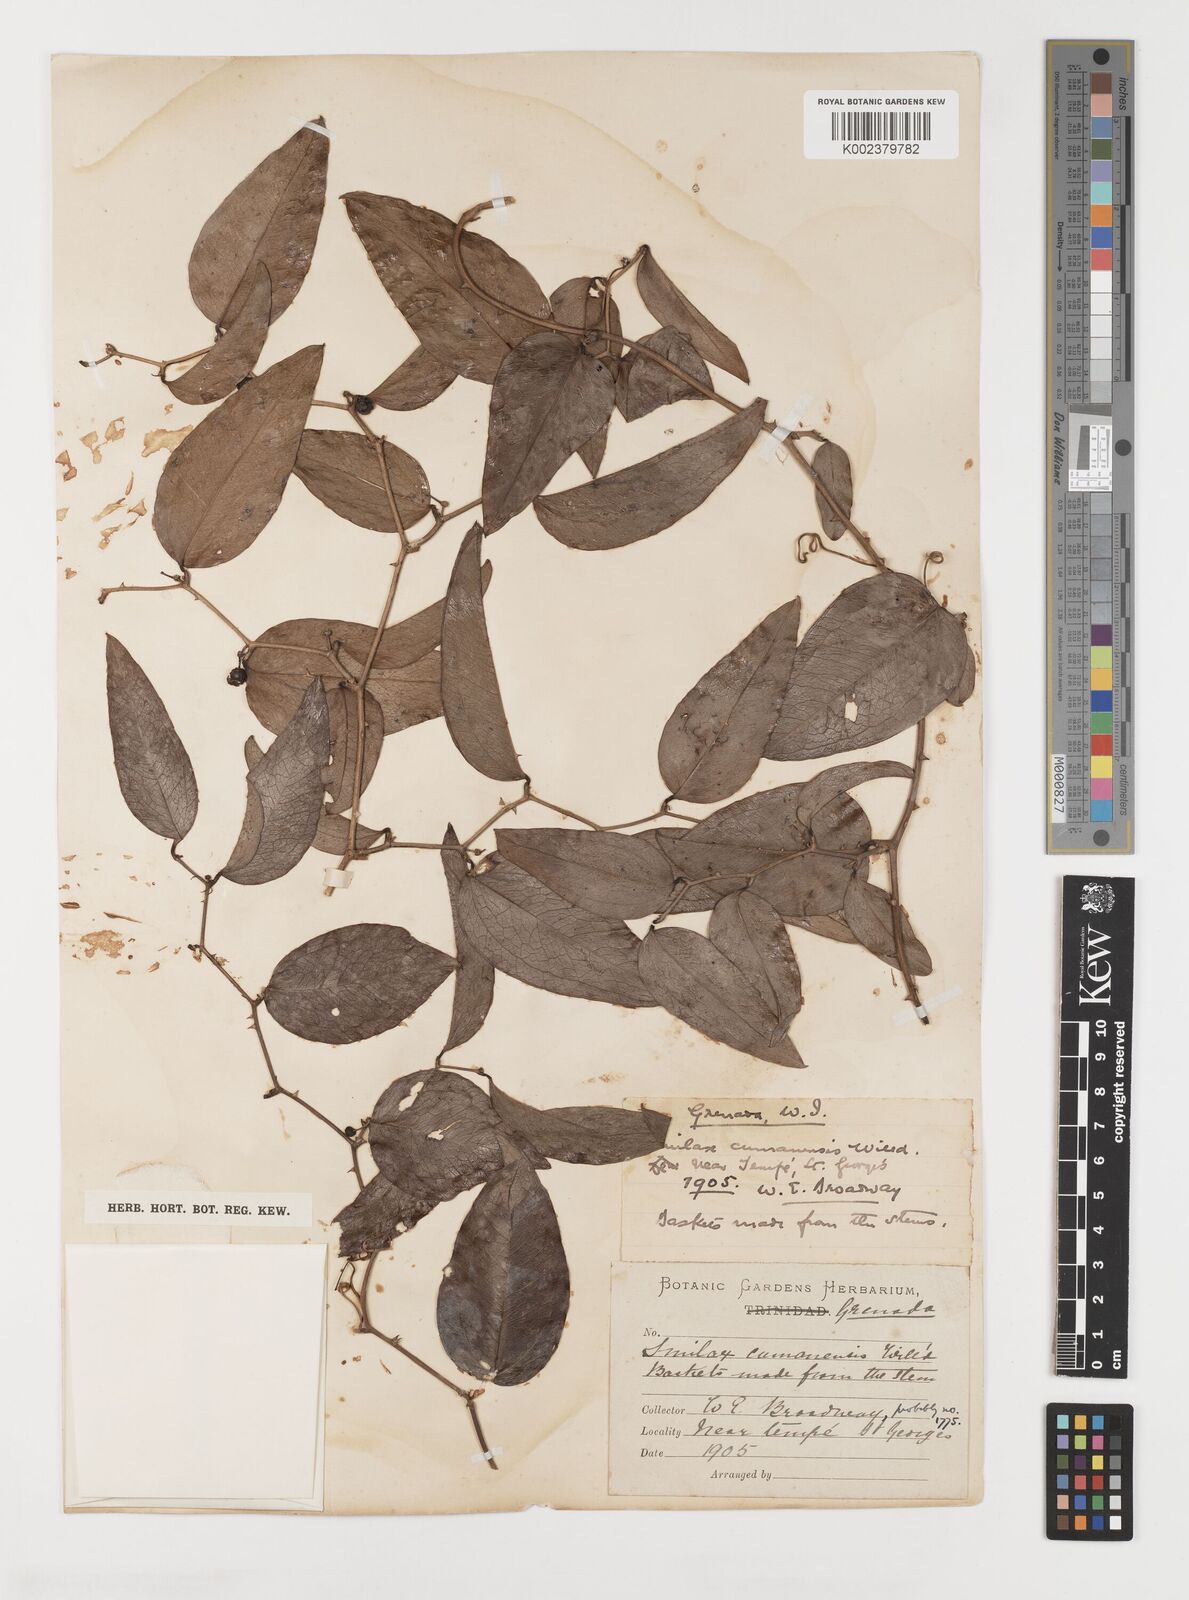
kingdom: Plantae
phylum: Tracheophyta
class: Liliopsida
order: Liliales
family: Smilacaceae
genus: Smilax
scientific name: Smilax oblongata
